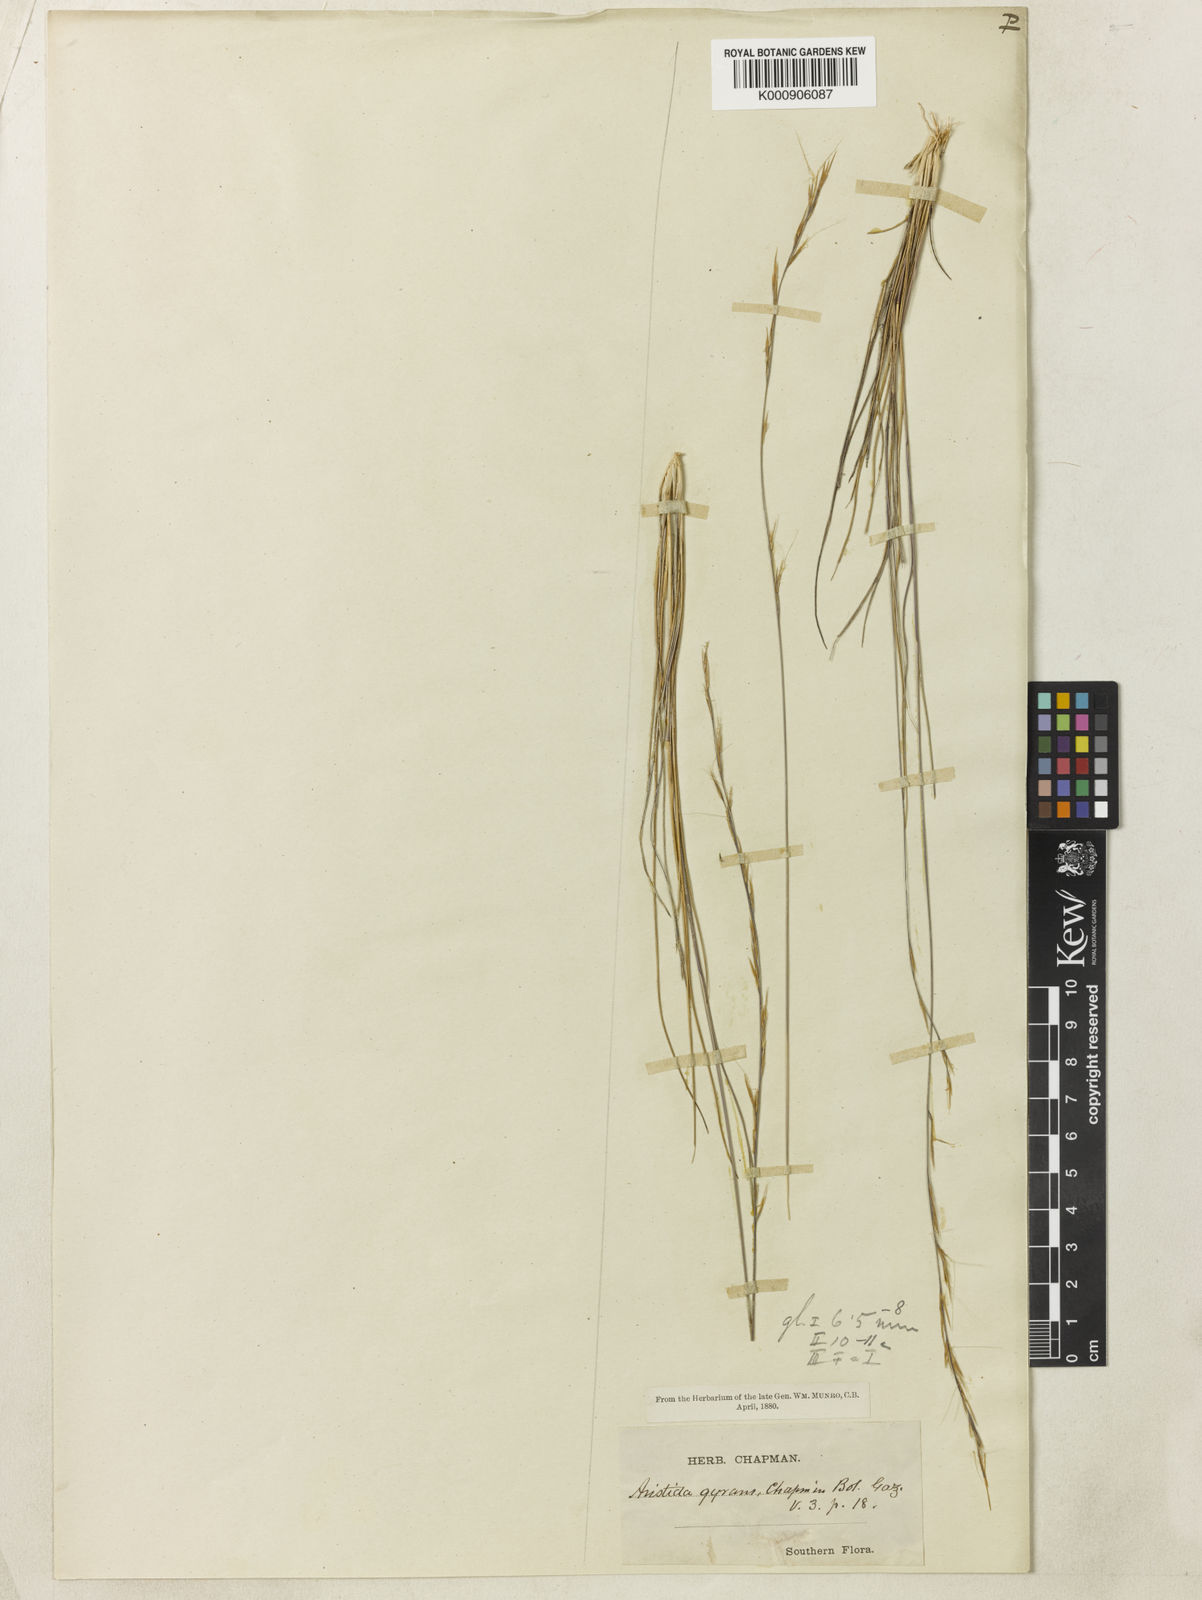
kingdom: Plantae
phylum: Tracheophyta
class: Liliopsida
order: Poales
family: Poaceae
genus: Aristida
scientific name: Aristida gyrans
